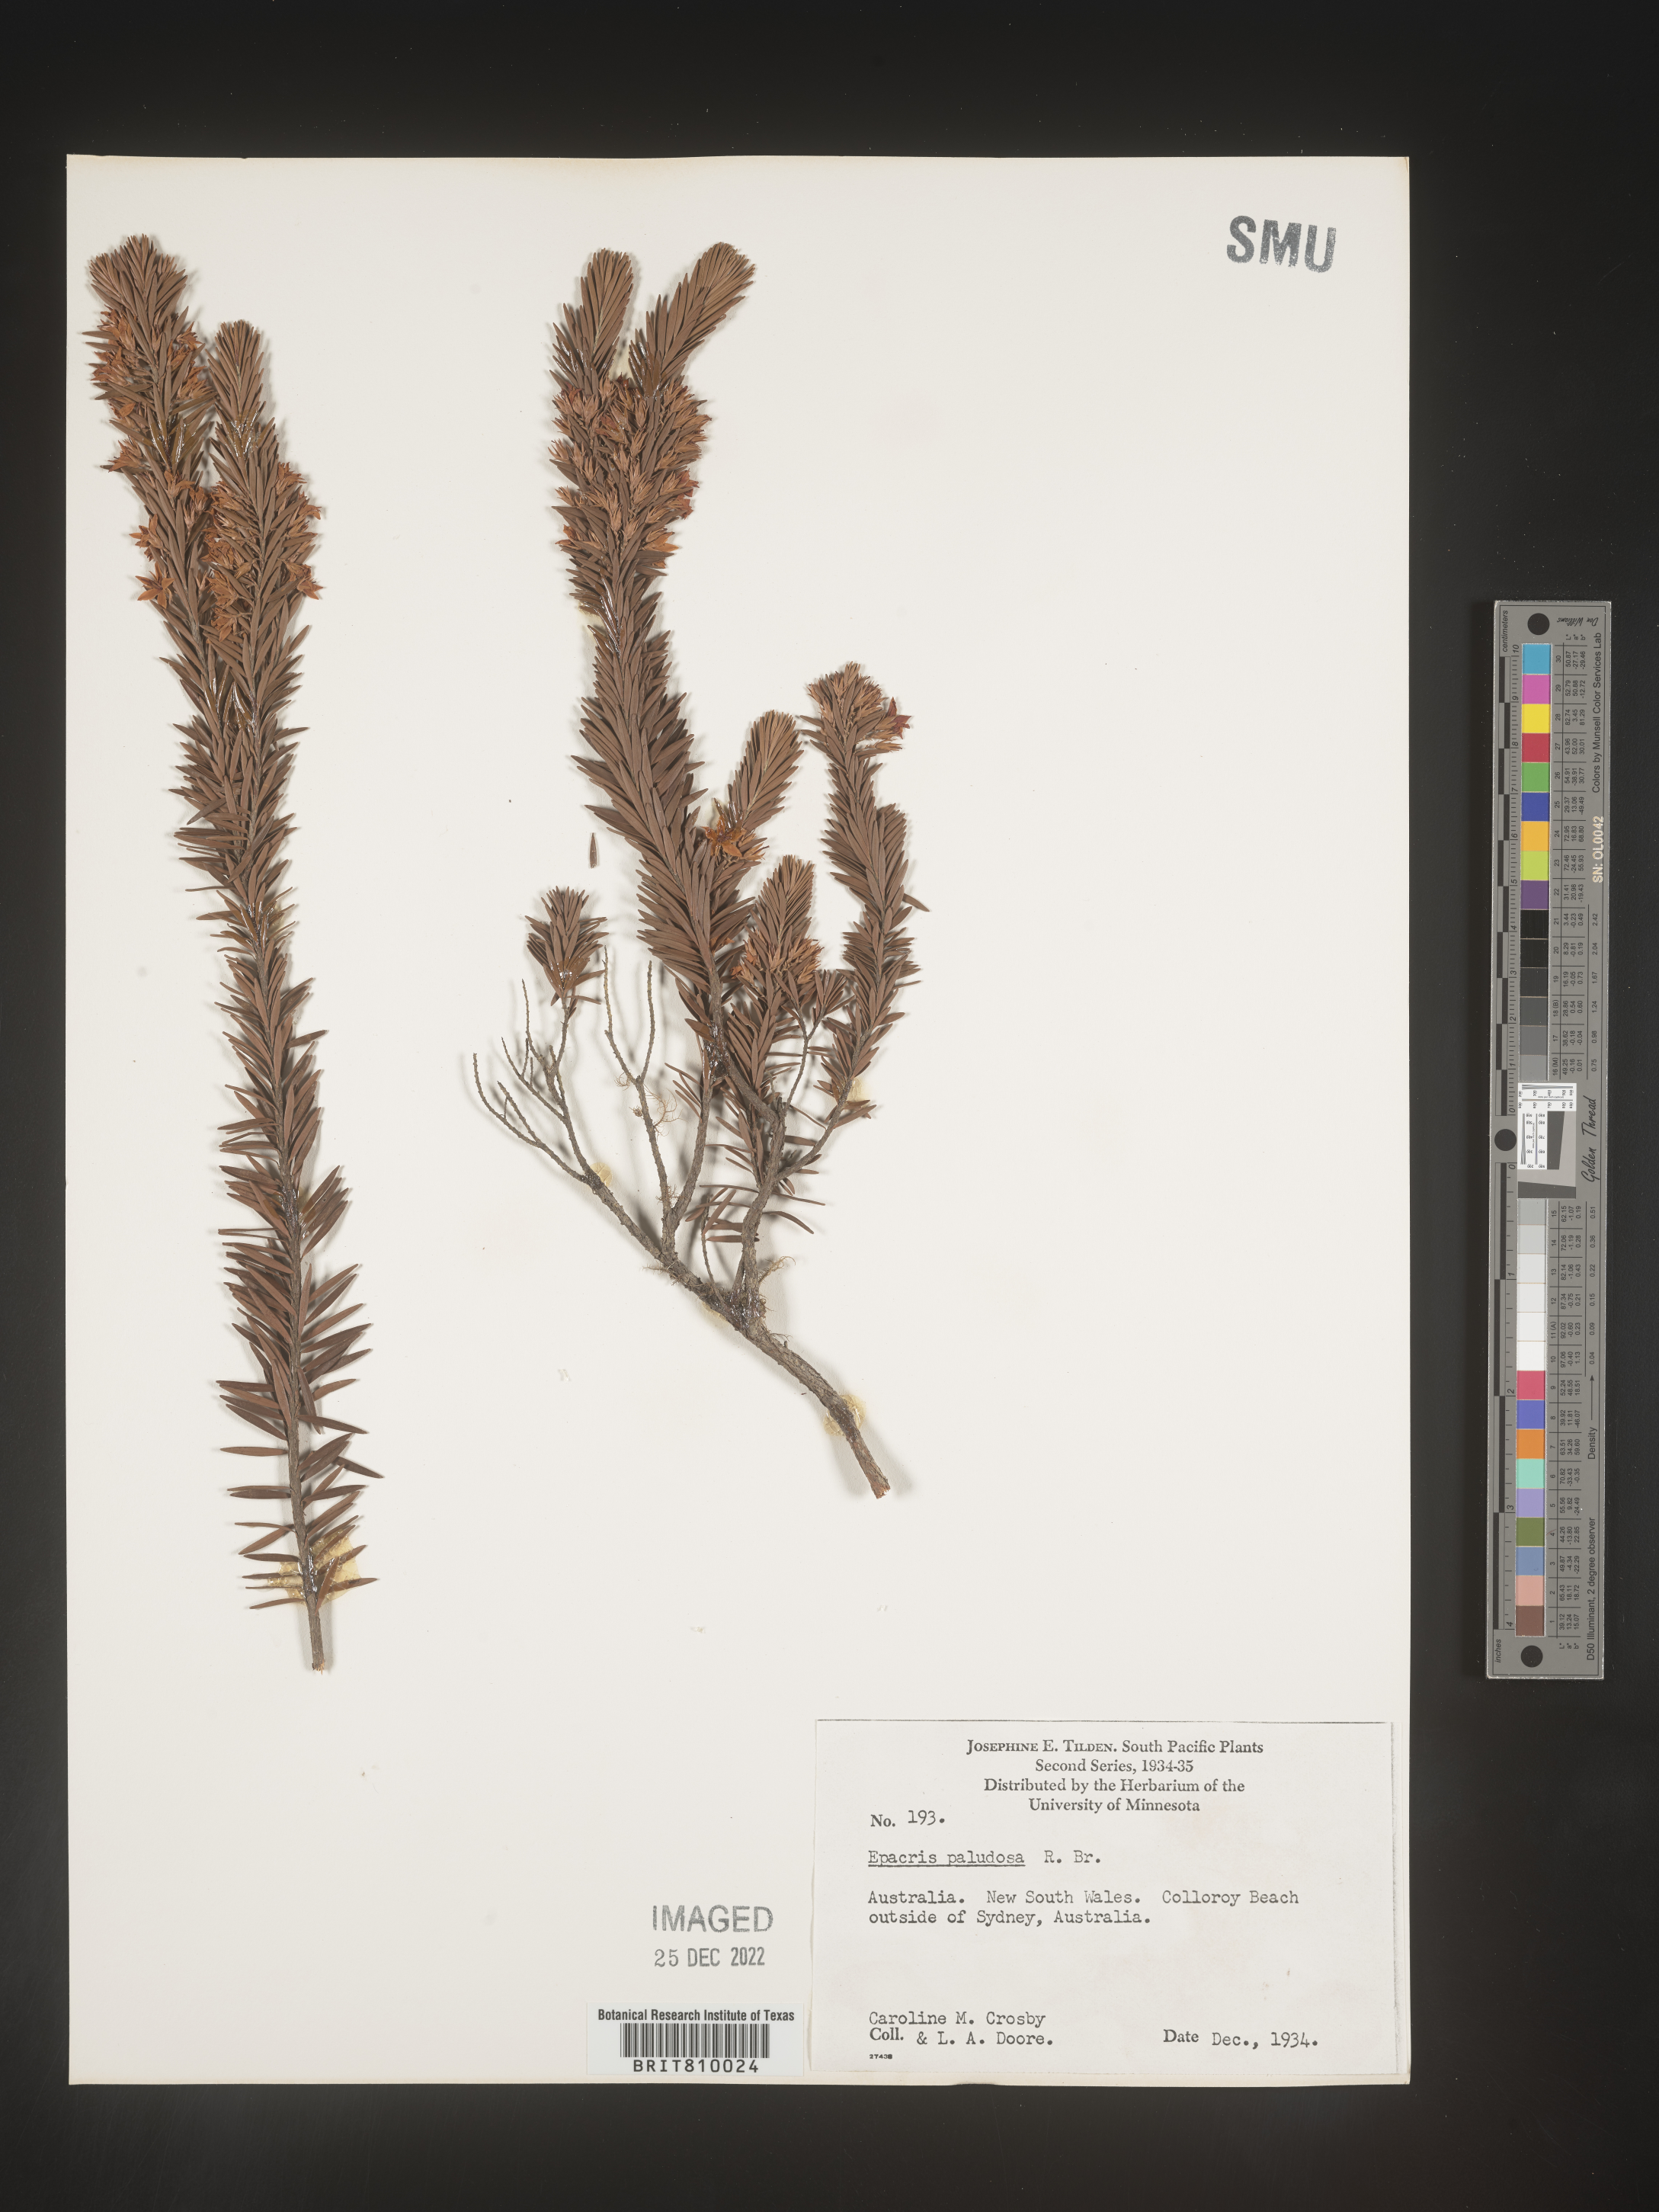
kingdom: Plantae
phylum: Tracheophyta
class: Magnoliopsida
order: Ericales
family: Ericaceae
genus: Epacris
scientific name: Epacris
